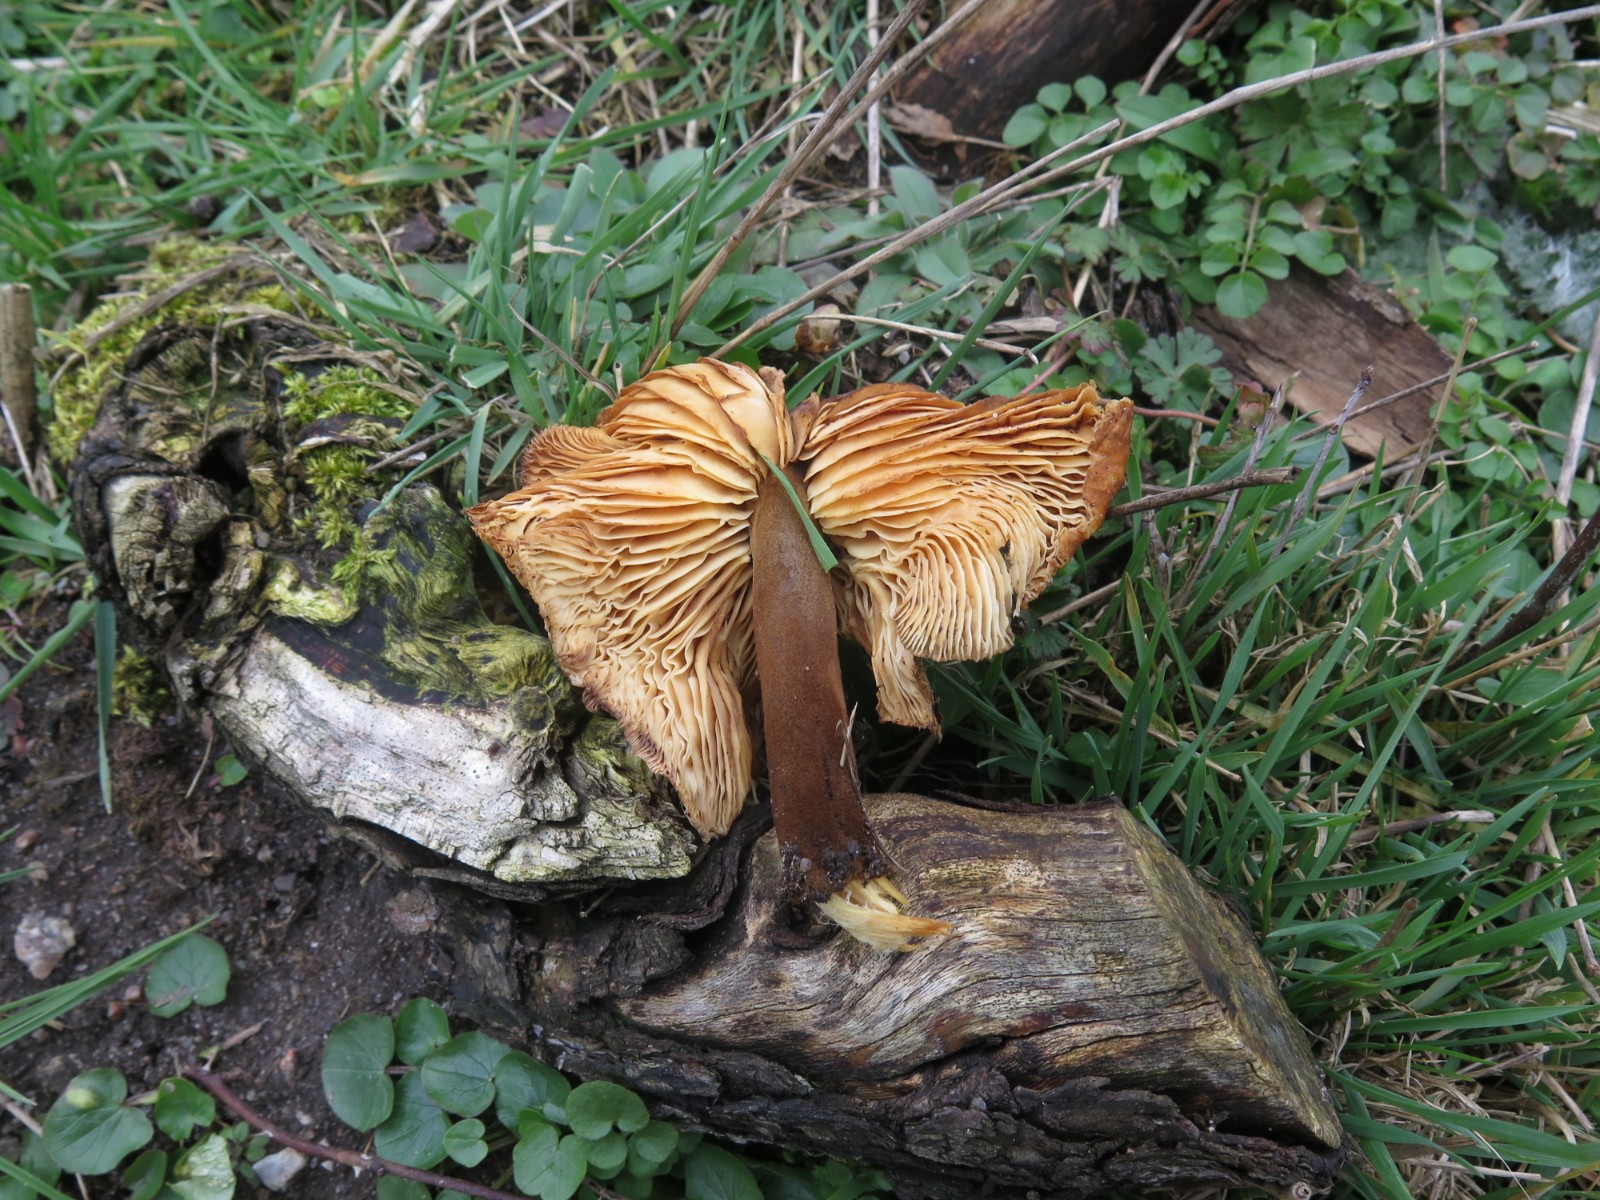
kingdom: Fungi
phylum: Basidiomycota
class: Agaricomycetes
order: Agaricales
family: Physalacriaceae
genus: Flammulina
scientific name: Flammulina velutipes
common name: gul fløjlsfod
